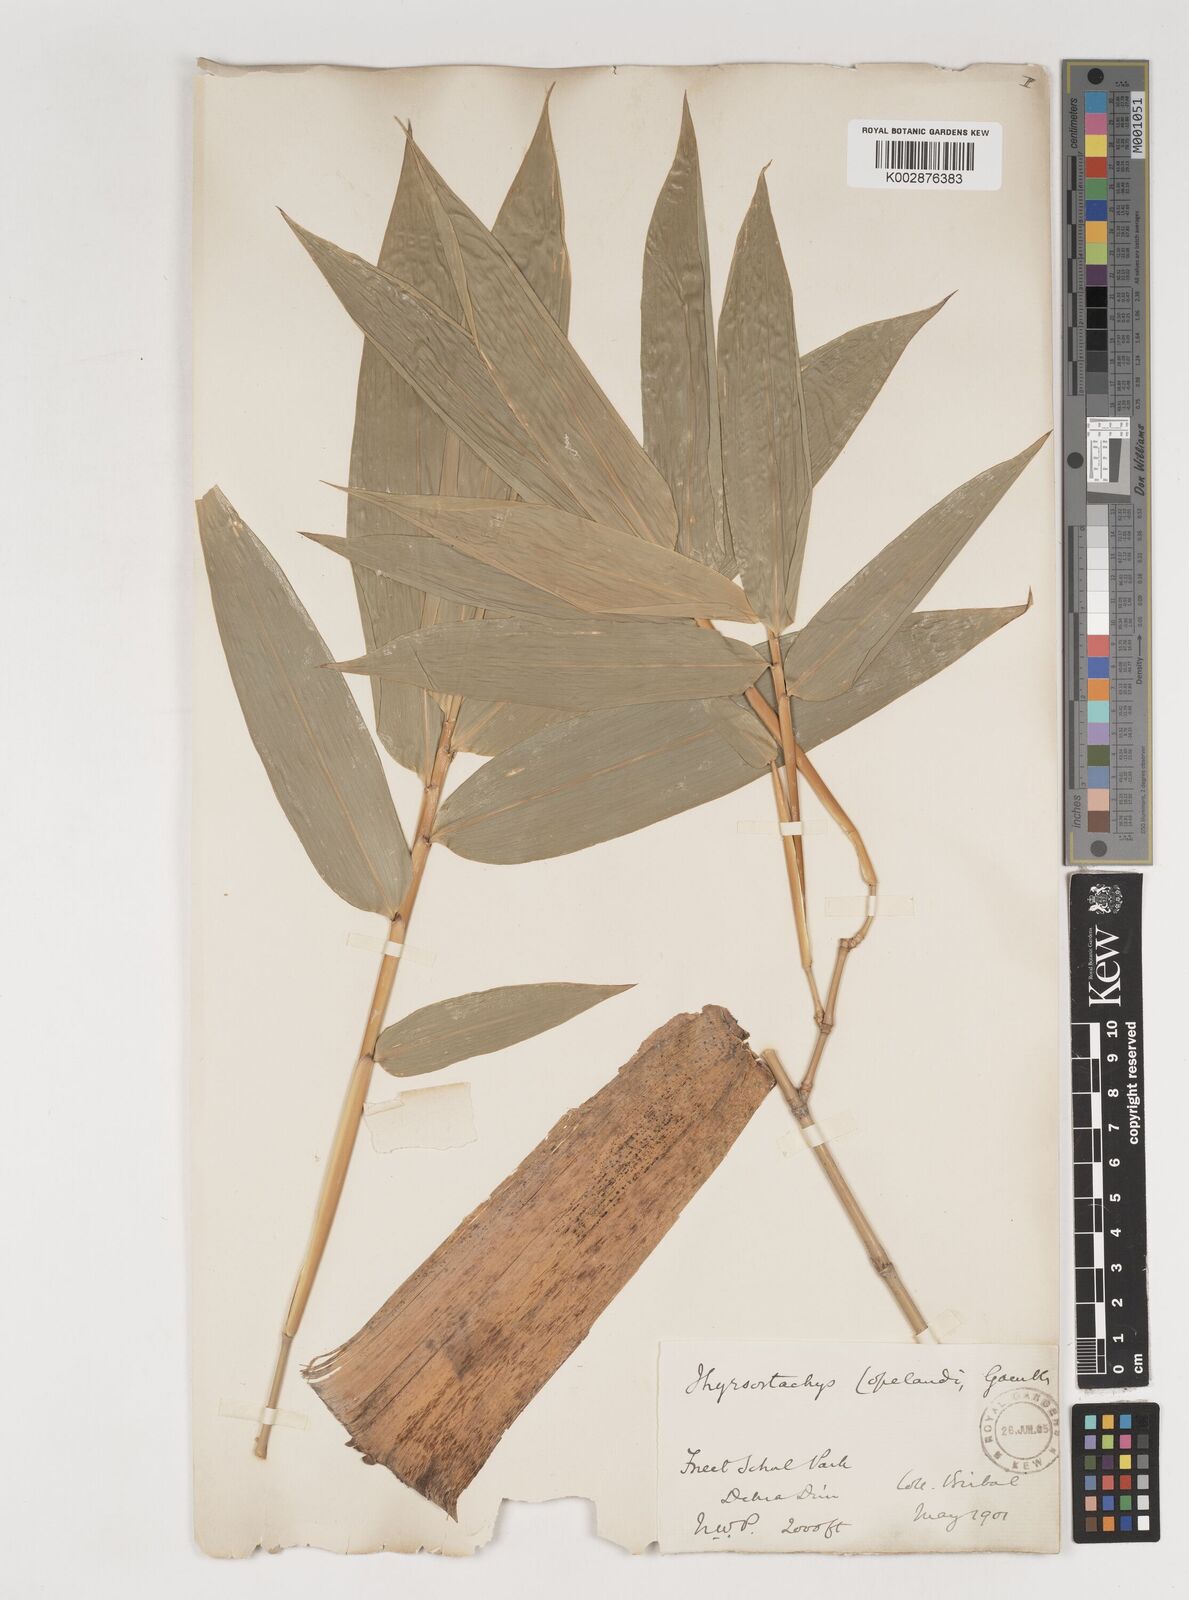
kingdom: Plantae
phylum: Tracheophyta
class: Liliopsida
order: Poales
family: Poaceae
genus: Bambusa
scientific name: Bambusa copelandii
